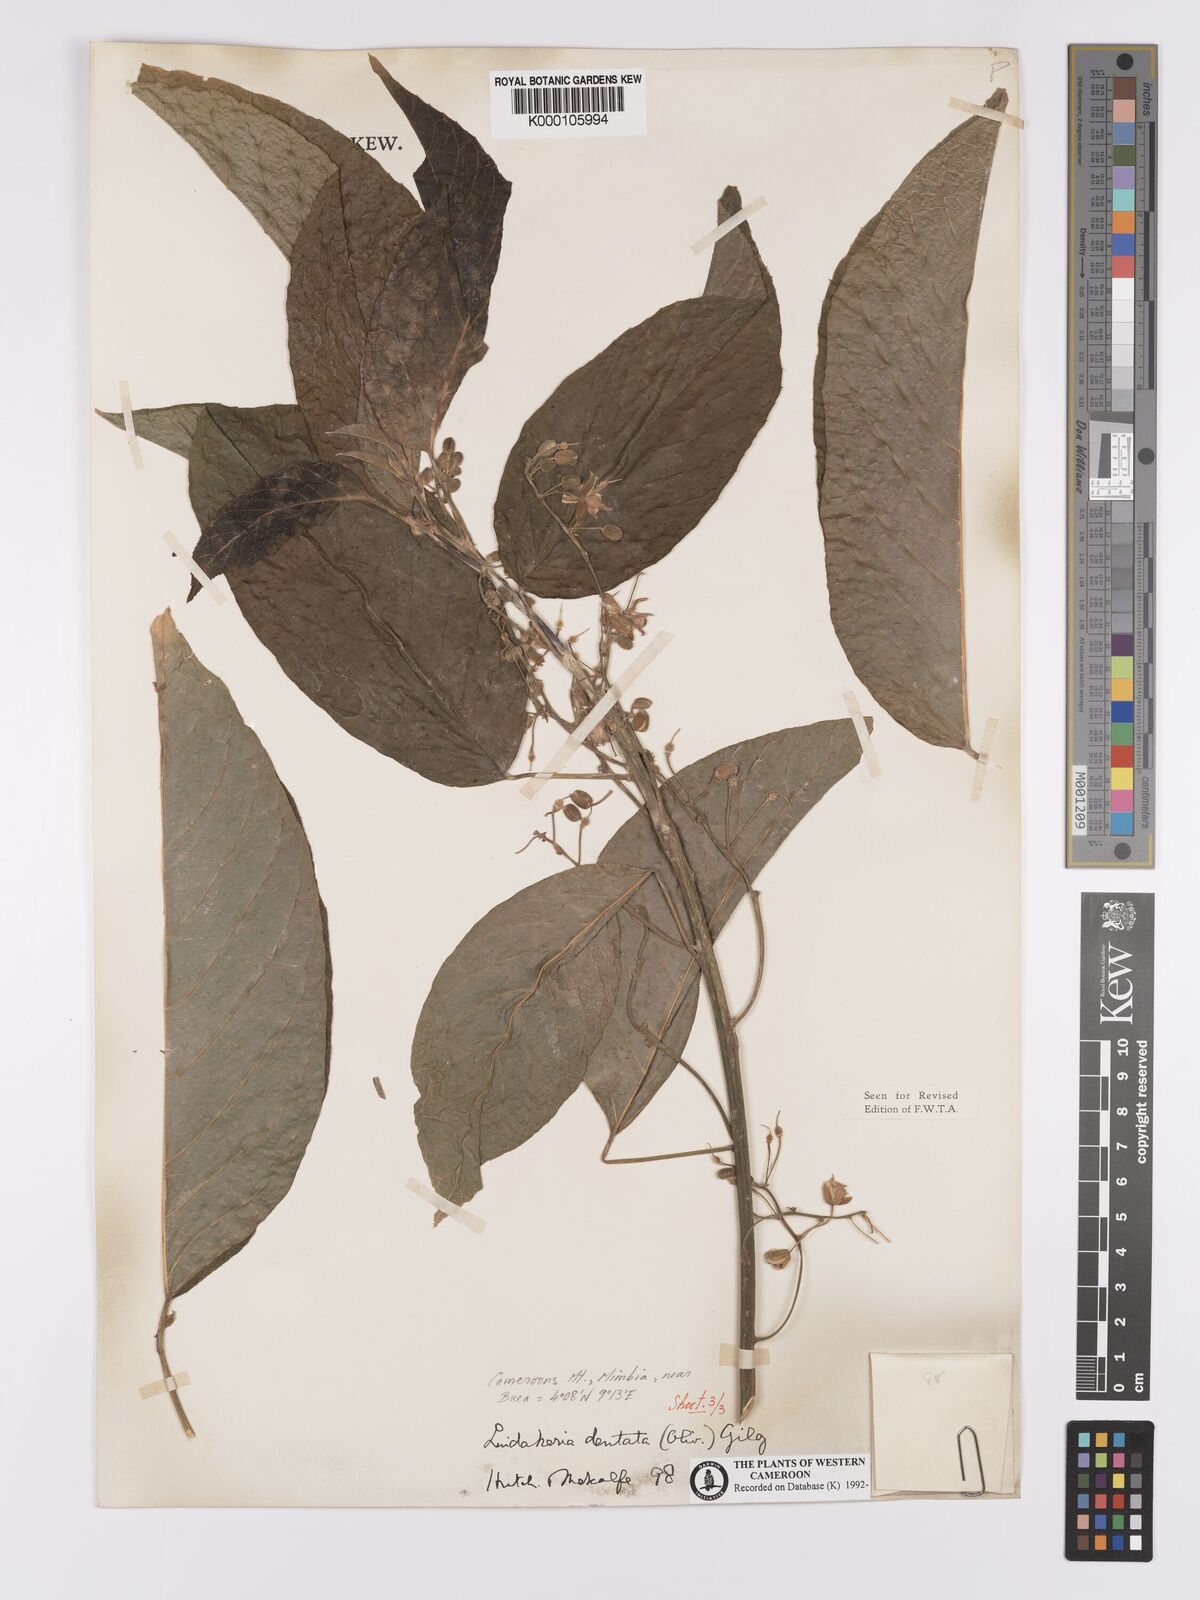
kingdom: Plantae
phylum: Tracheophyta
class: Magnoliopsida
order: Malpighiales
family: Achariaceae
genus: Lindackeria
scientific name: Lindackeria dentata
